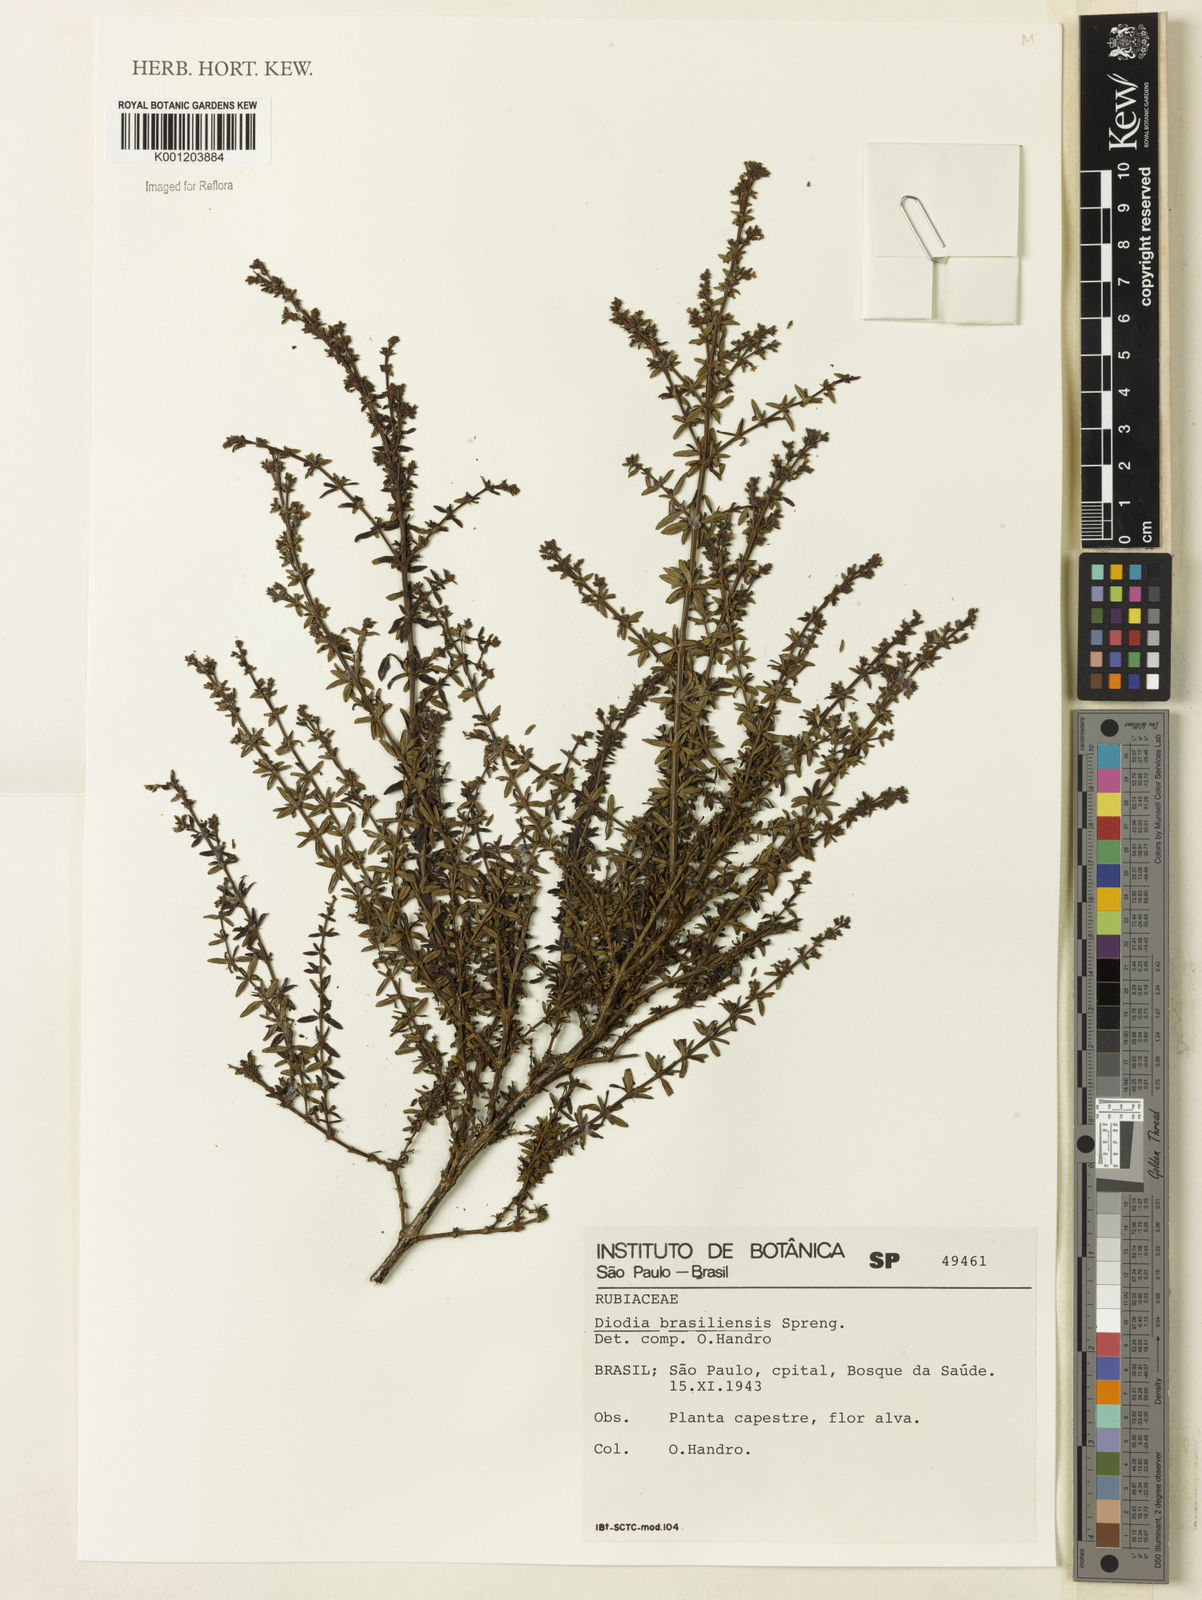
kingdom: Plantae
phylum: Tracheophyta
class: Magnoliopsida
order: Gentianales
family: Rubiaceae
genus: Galianthe
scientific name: Galianthe brasiliensis
